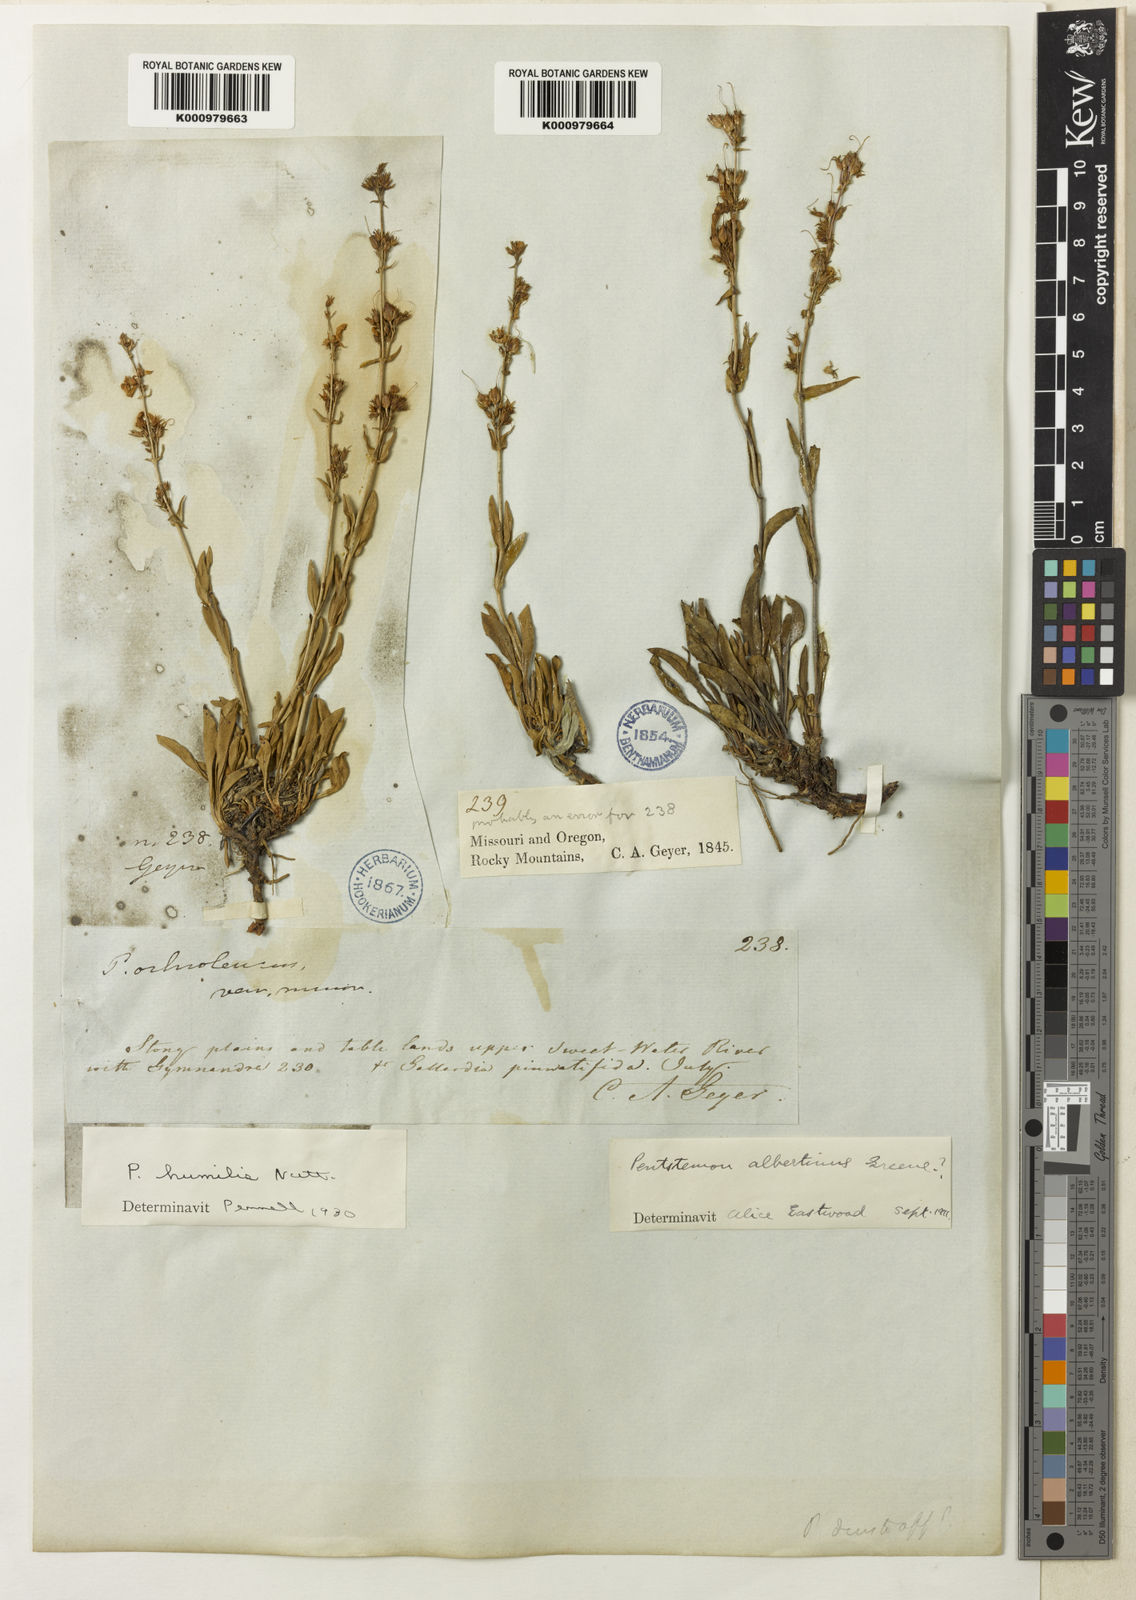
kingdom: Plantae
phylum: Tracheophyta
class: Magnoliopsida
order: Lamiales
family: Plantaginaceae
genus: Penstemon
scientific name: Penstemon humilis
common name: Low penstemon
